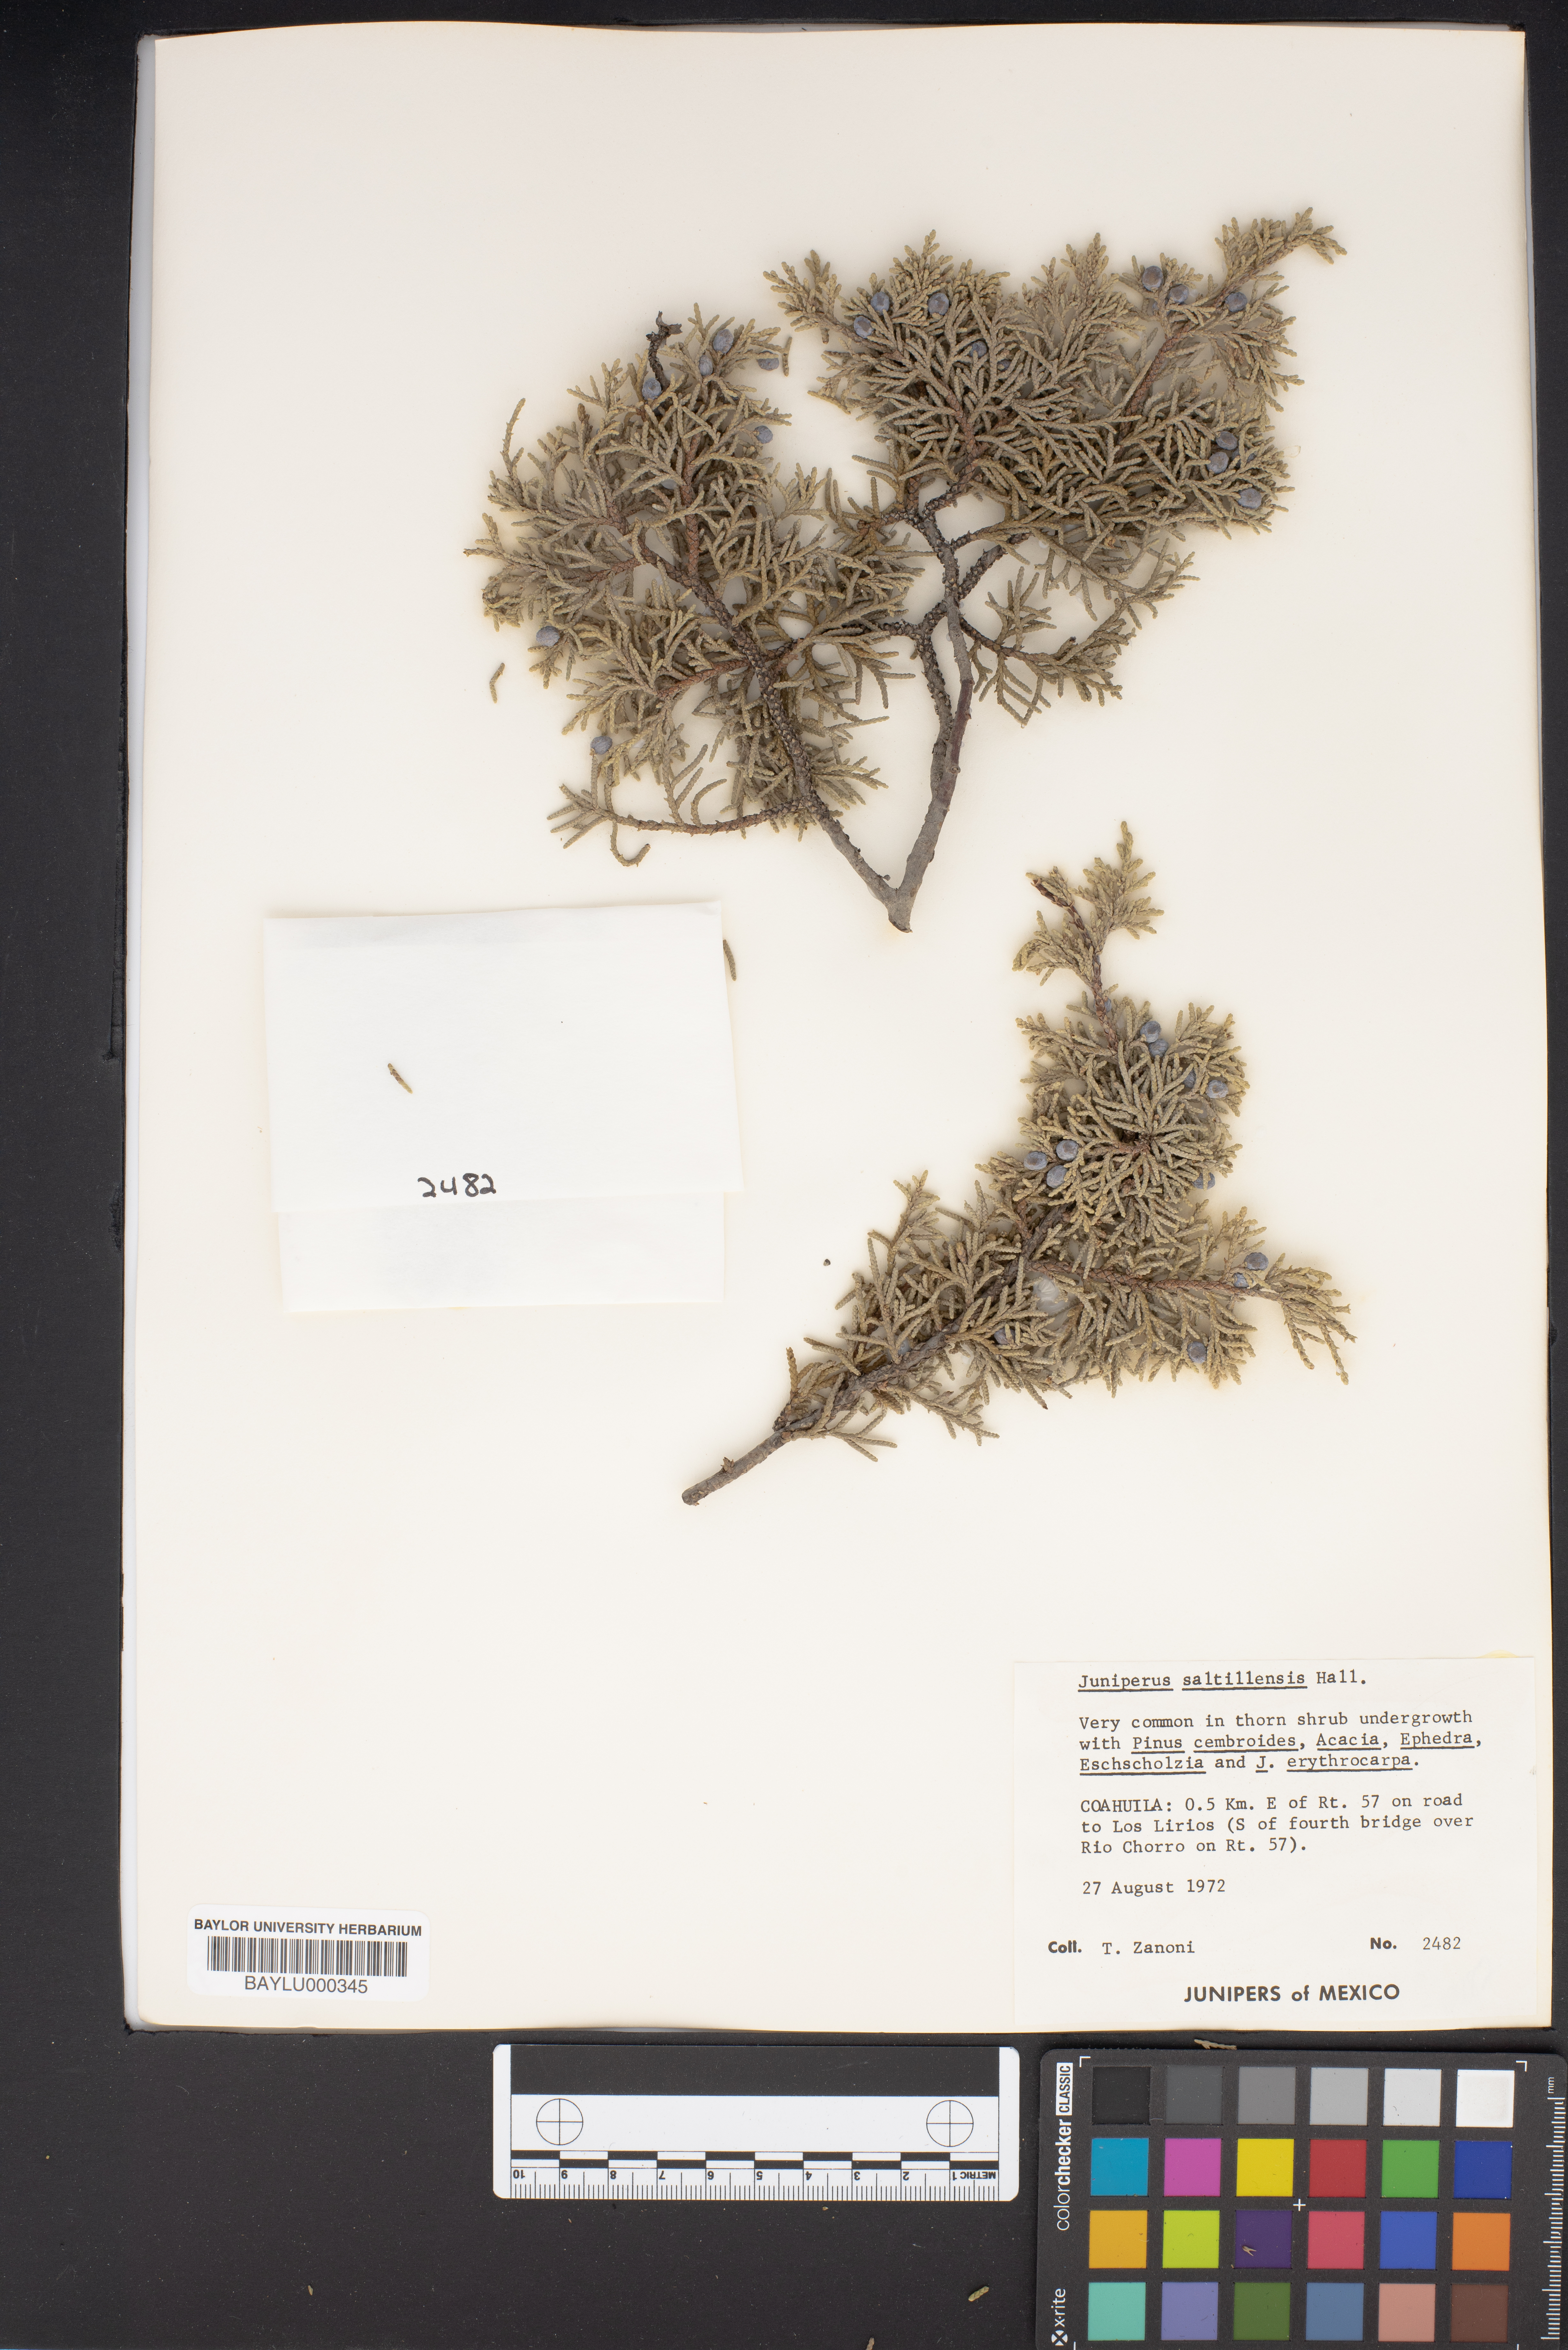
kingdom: Plantae
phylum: Tracheophyta
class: Pinopsida
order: Pinales
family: Cupressaceae
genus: Juniperus
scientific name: Juniperus saltillensis
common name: Saltillo juniper
